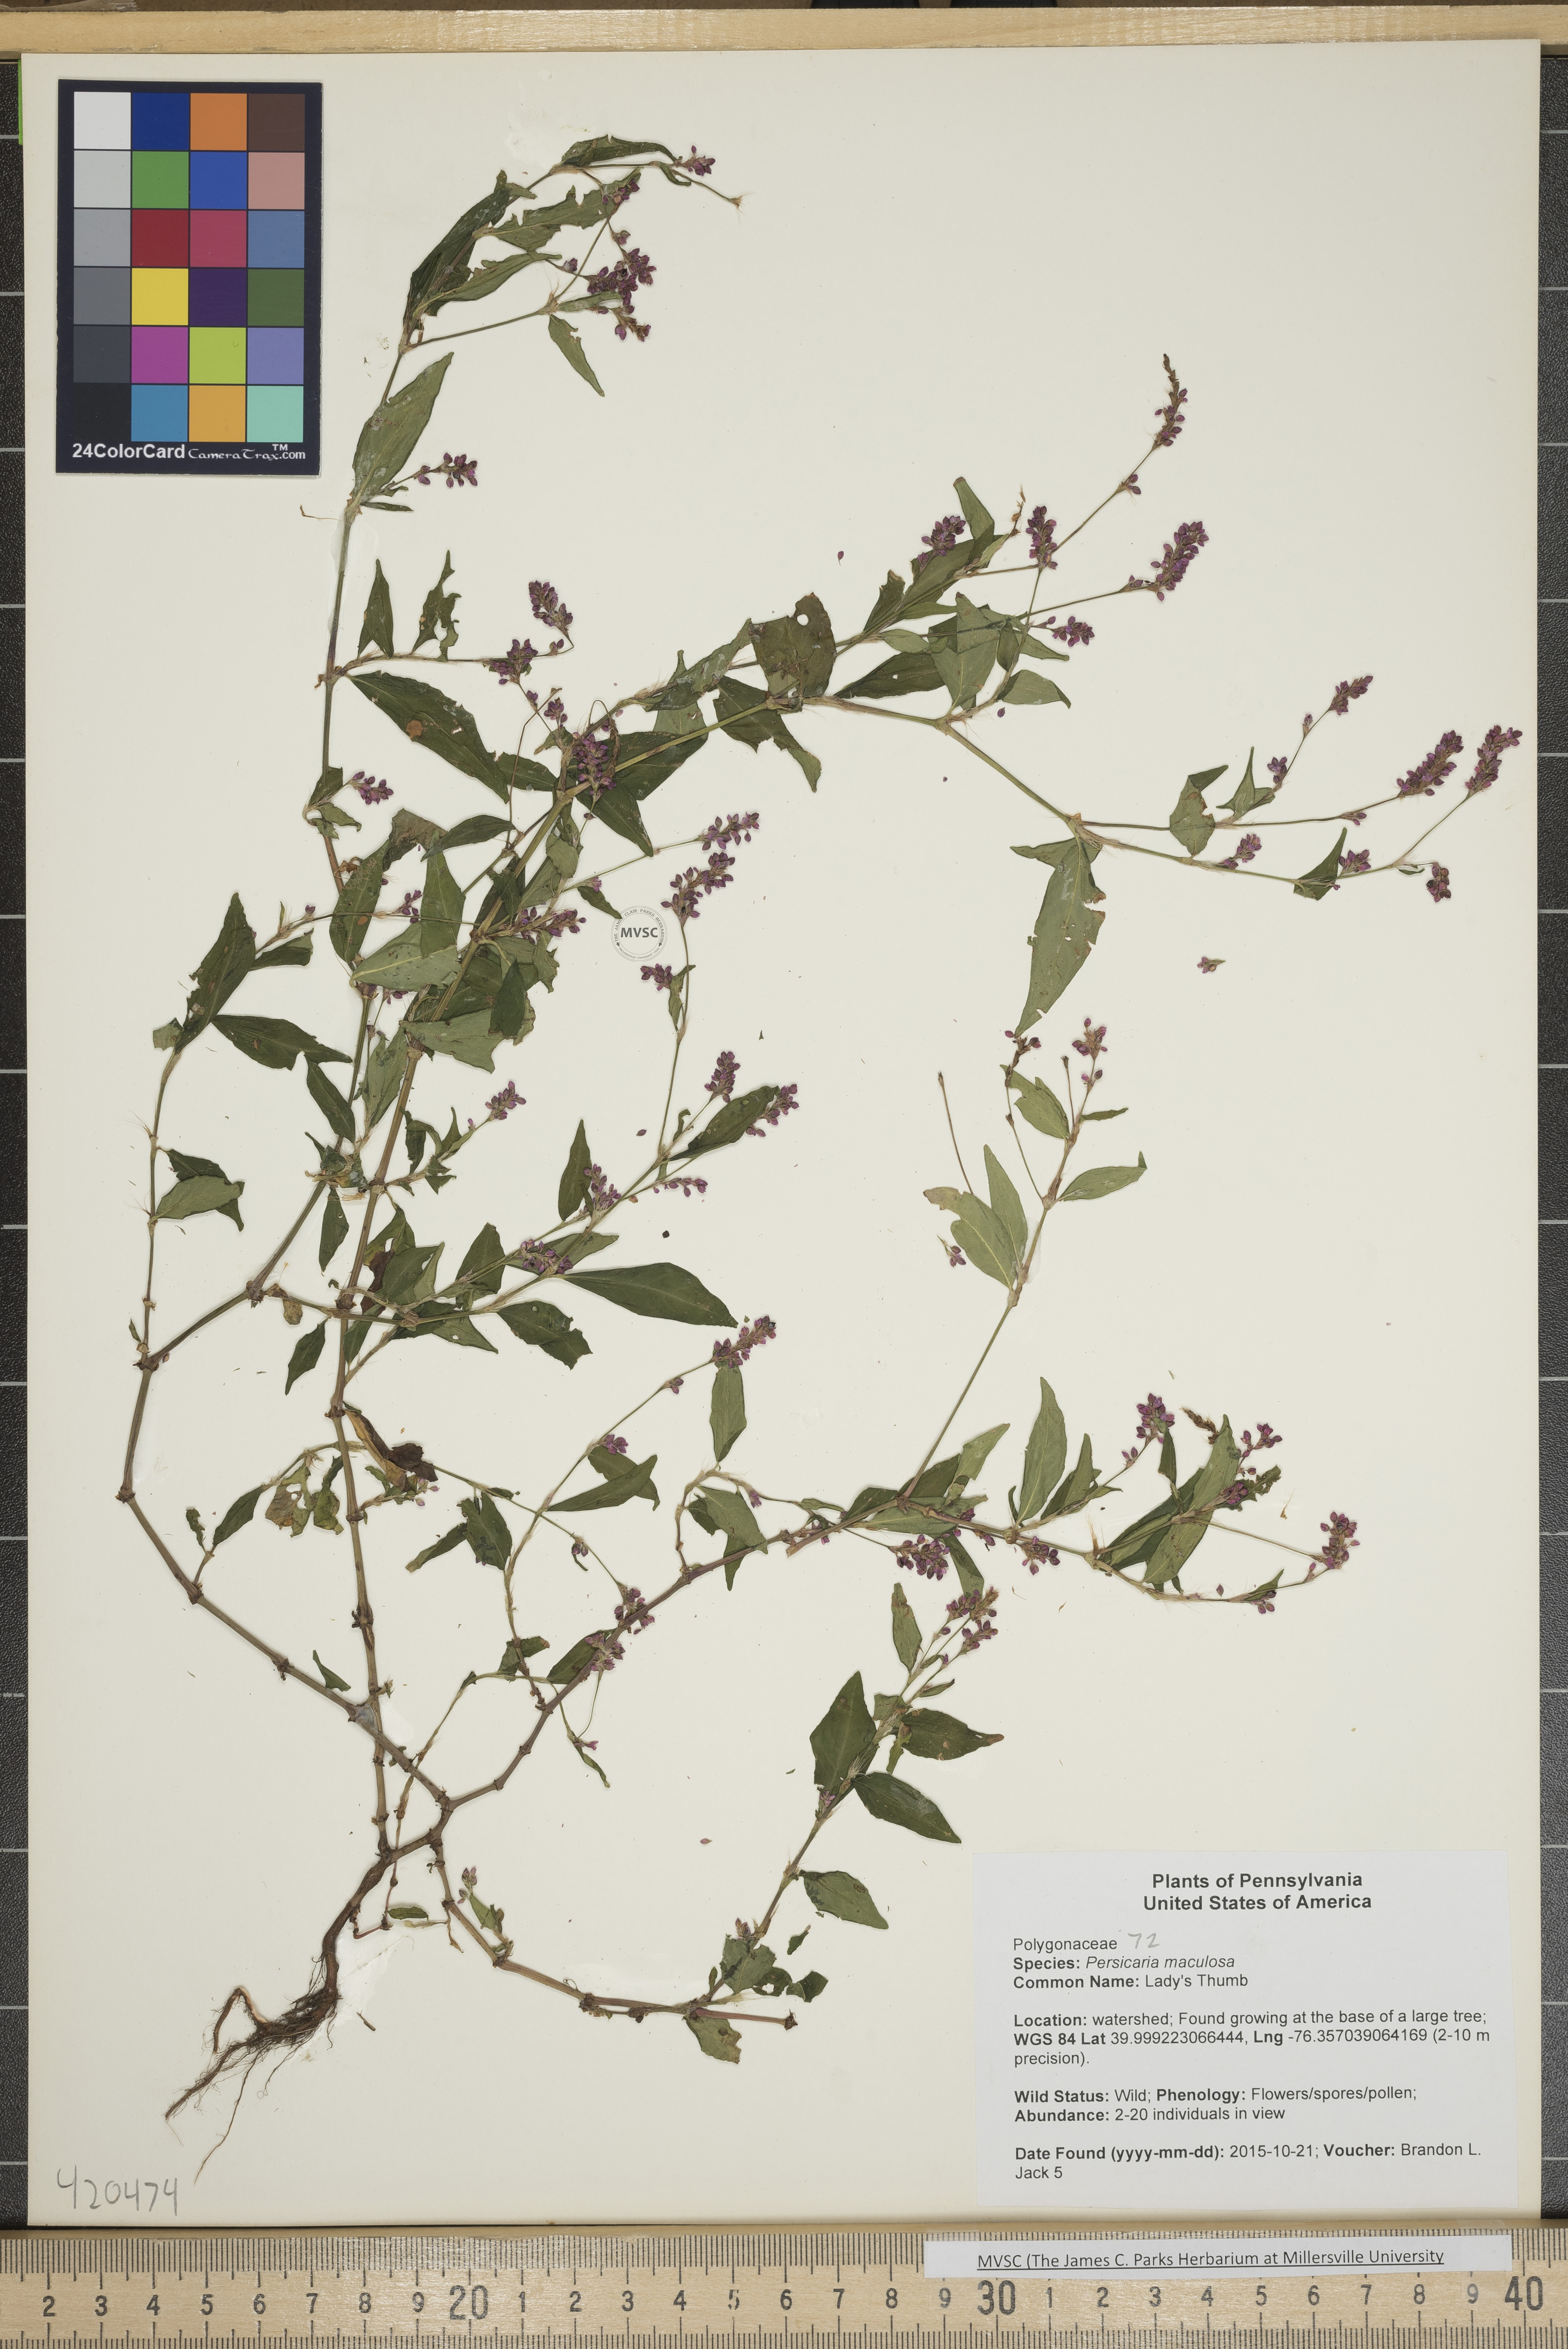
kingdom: Plantae
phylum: Tracheophyta
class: Magnoliopsida
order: Caryophyllales
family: Polygonaceae
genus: Persicaria
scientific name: Persicaria maculosa
